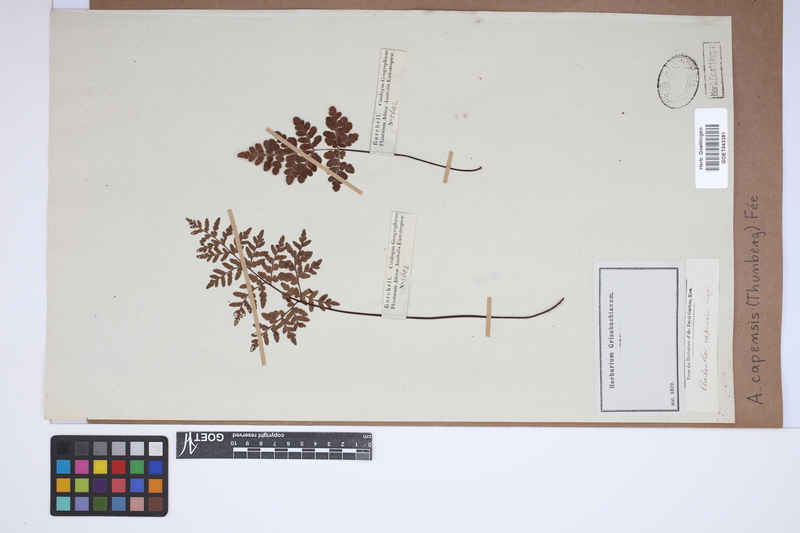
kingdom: Plantae
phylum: Tracheophyta
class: Polypodiopsida
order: Polypodiales
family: Pteridaceae
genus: Cheilanthes
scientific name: Cheilanthes capensis
